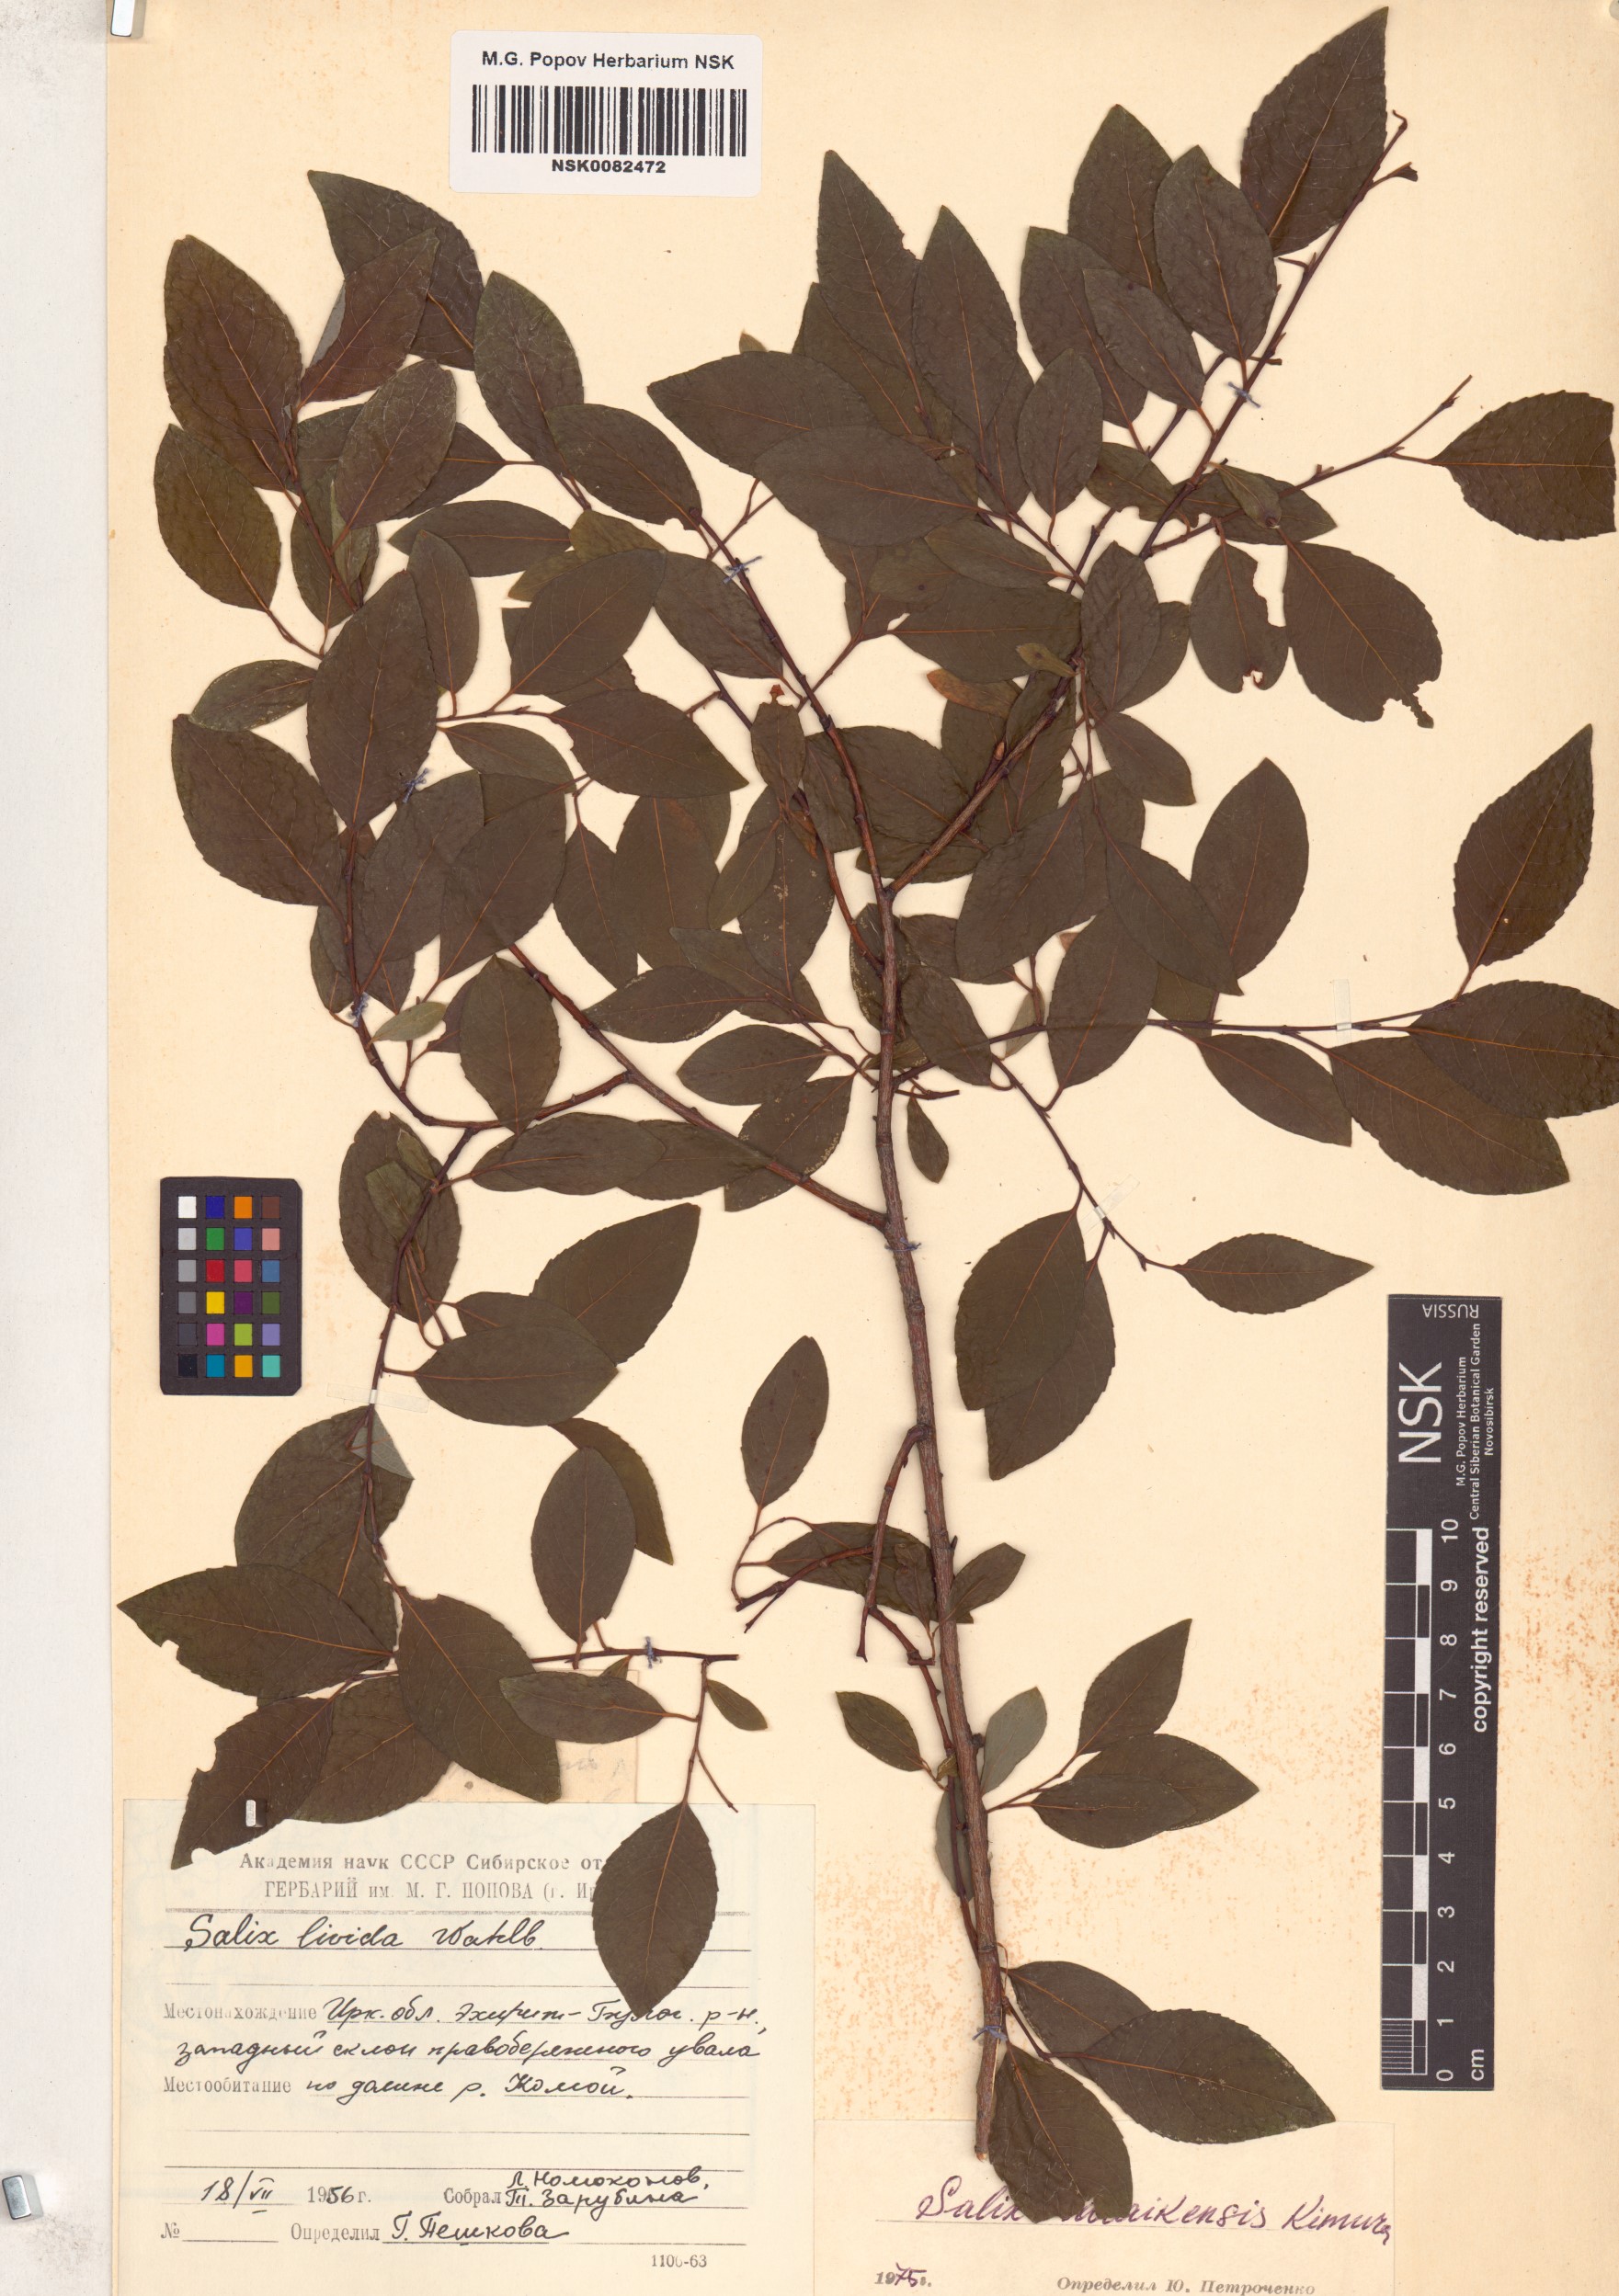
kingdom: Plantae
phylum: Tracheophyta
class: Magnoliopsida
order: Malpighiales
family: Salicaceae
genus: Salix
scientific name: Salix taraikensis
